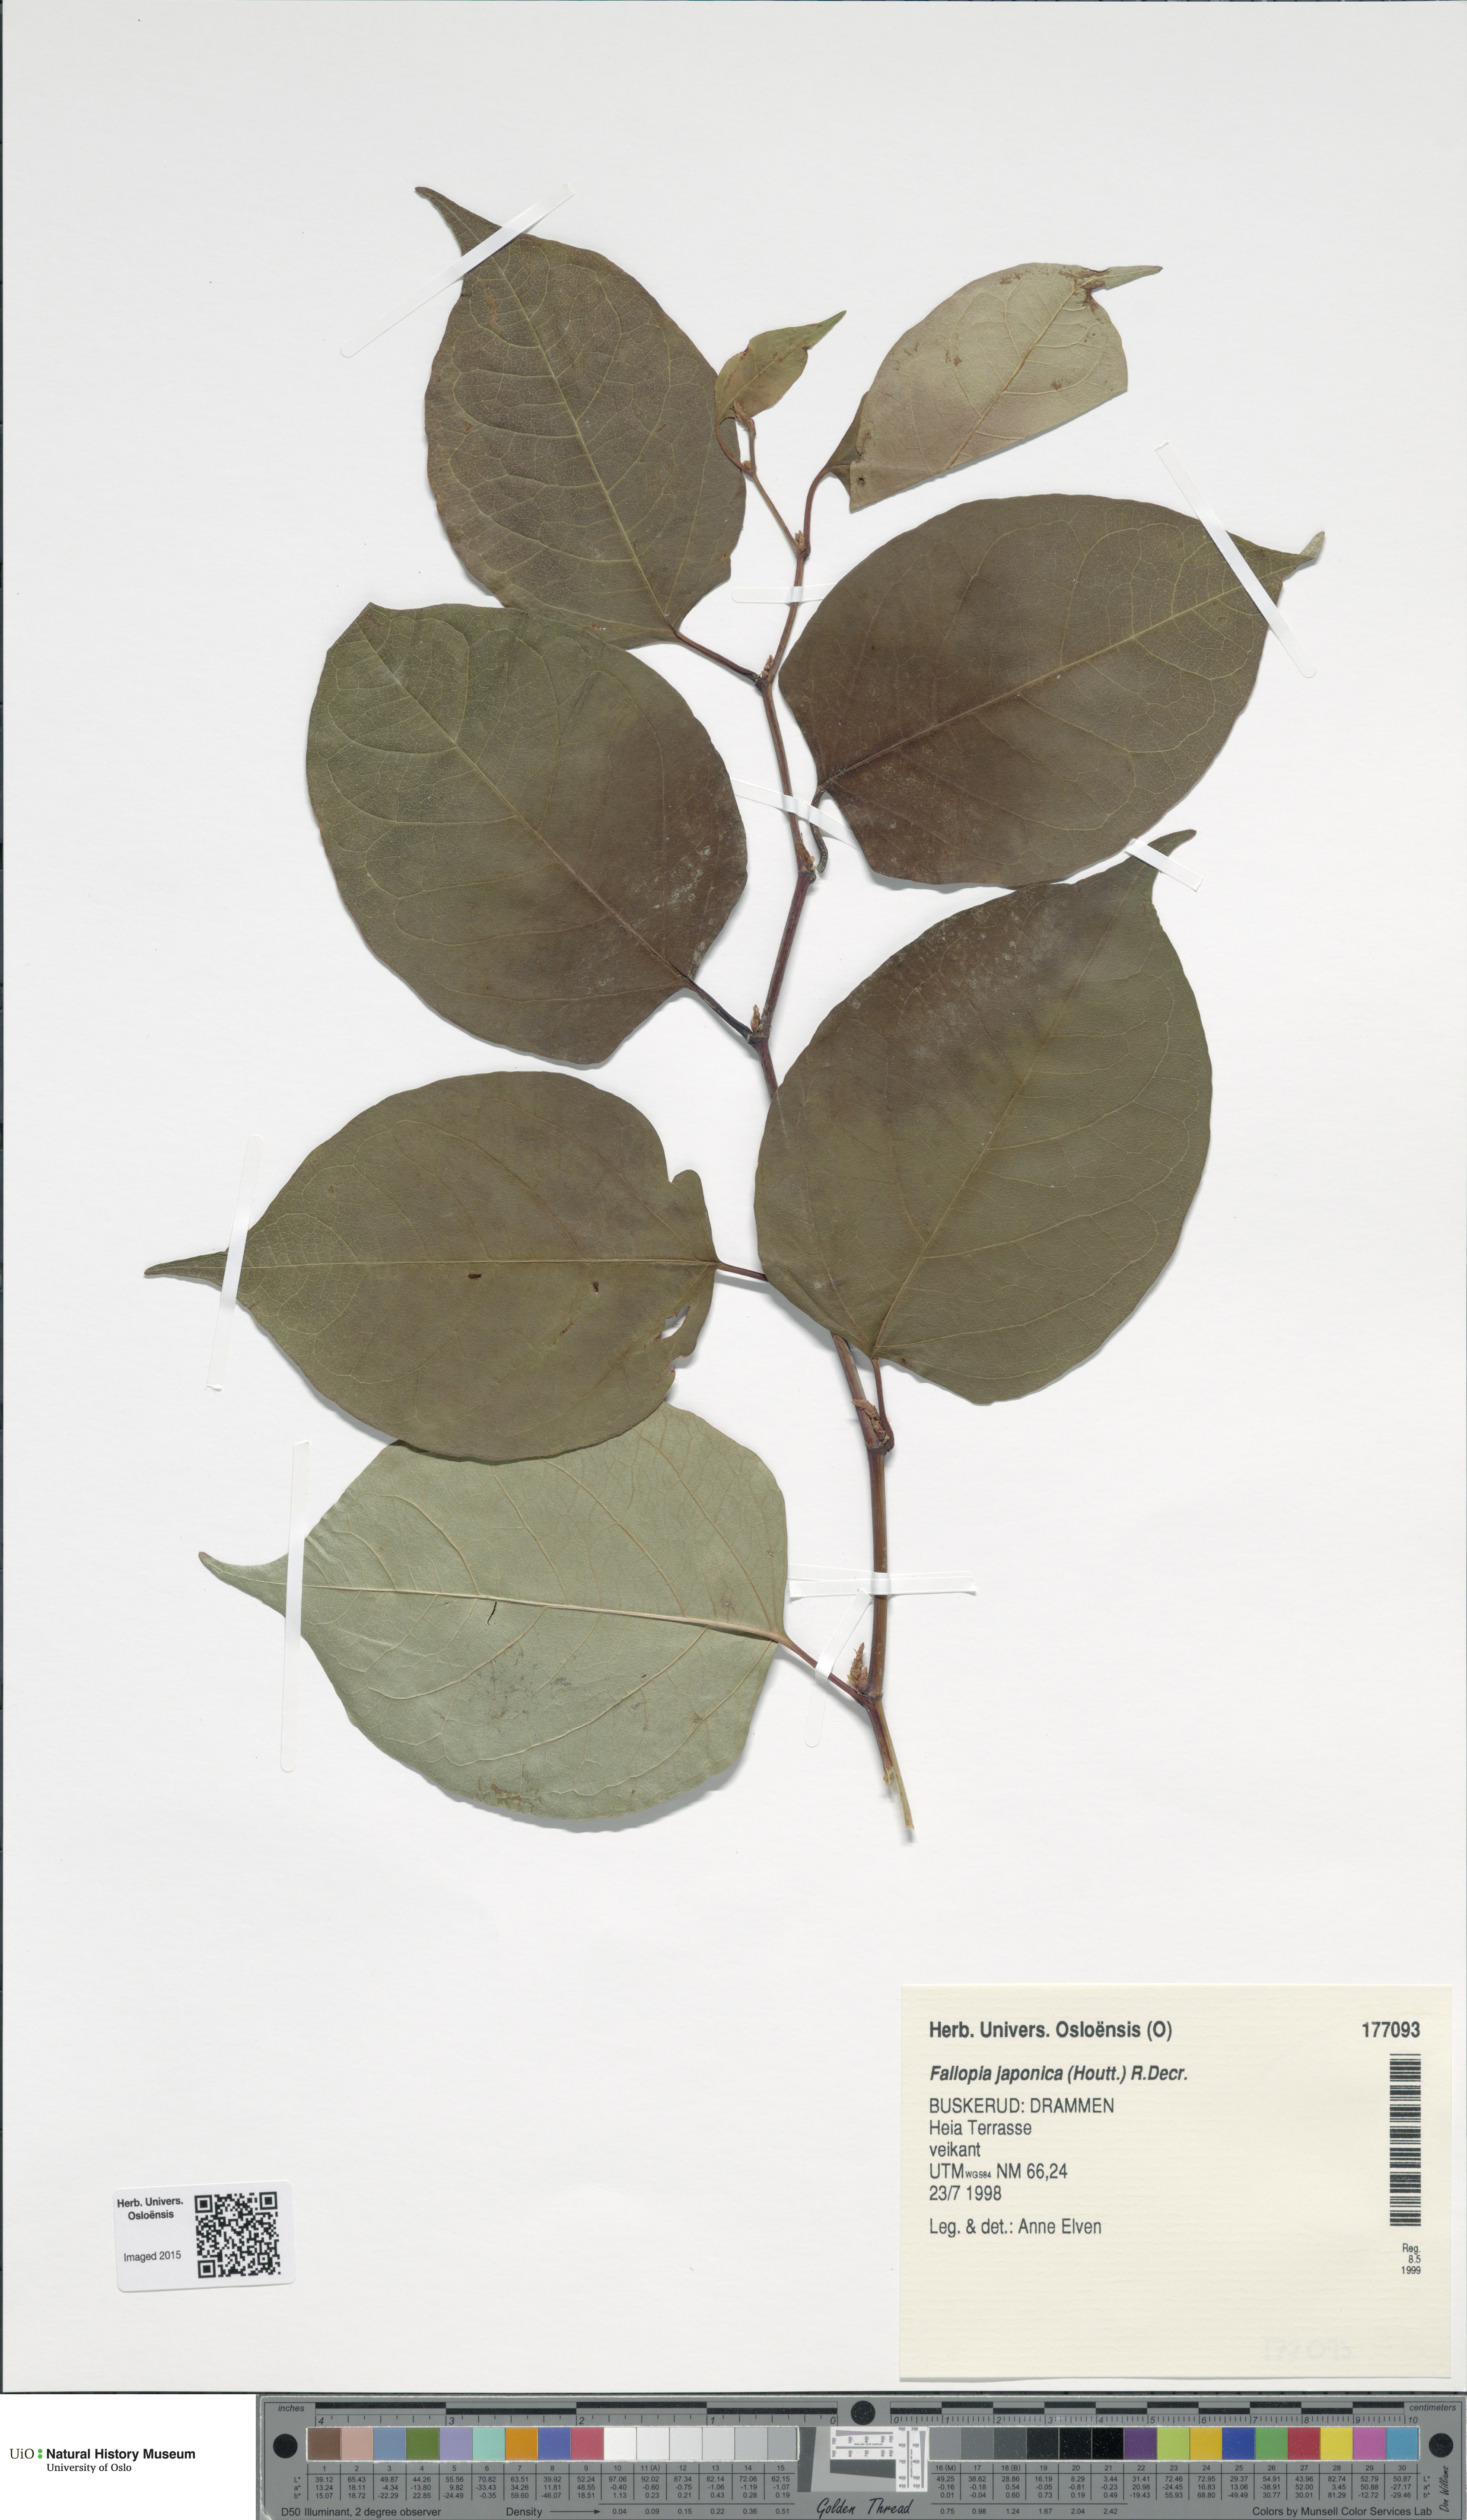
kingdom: Plantae
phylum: Tracheophyta
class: Magnoliopsida
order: Caryophyllales
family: Polygonaceae
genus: Reynoutria
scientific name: Reynoutria japonica
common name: Japanese knotweed
